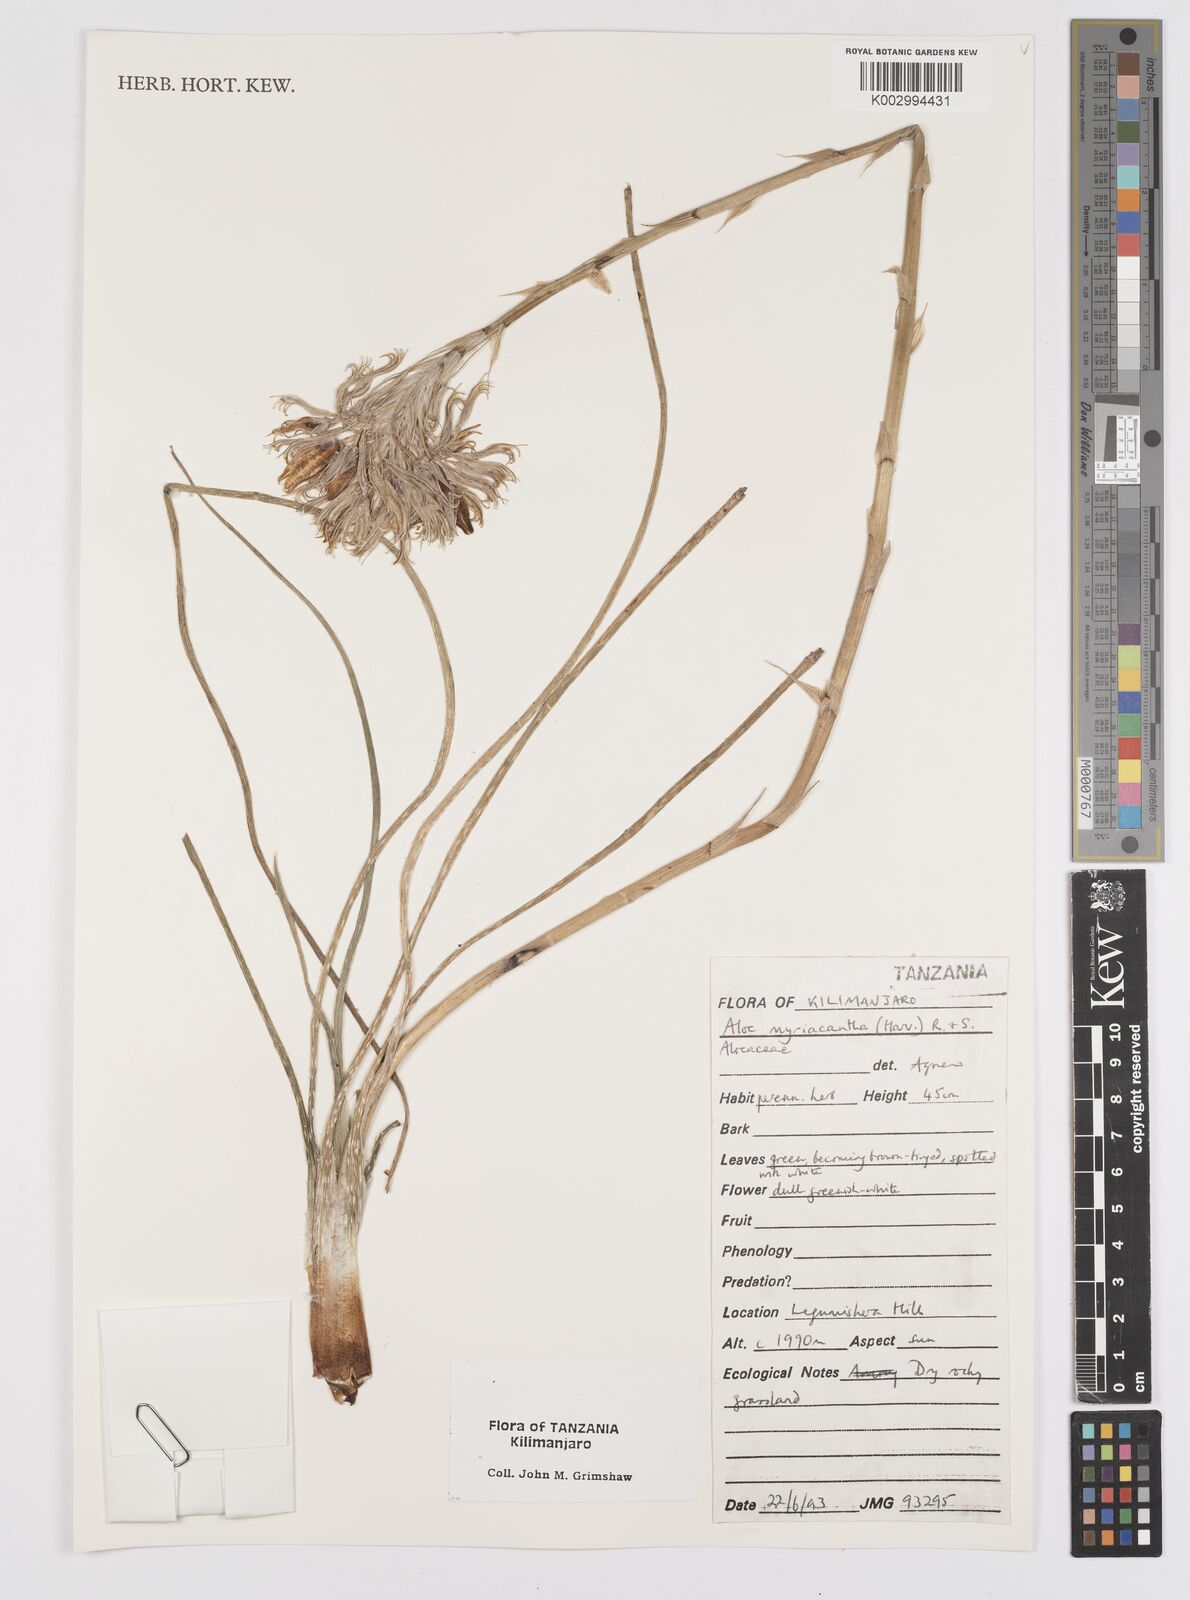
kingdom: Plantae
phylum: Tracheophyta
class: Liliopsida
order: Asparagales
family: Asphodelaceae
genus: Aloe
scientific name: Aloe myriacantha
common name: Grass aloe
